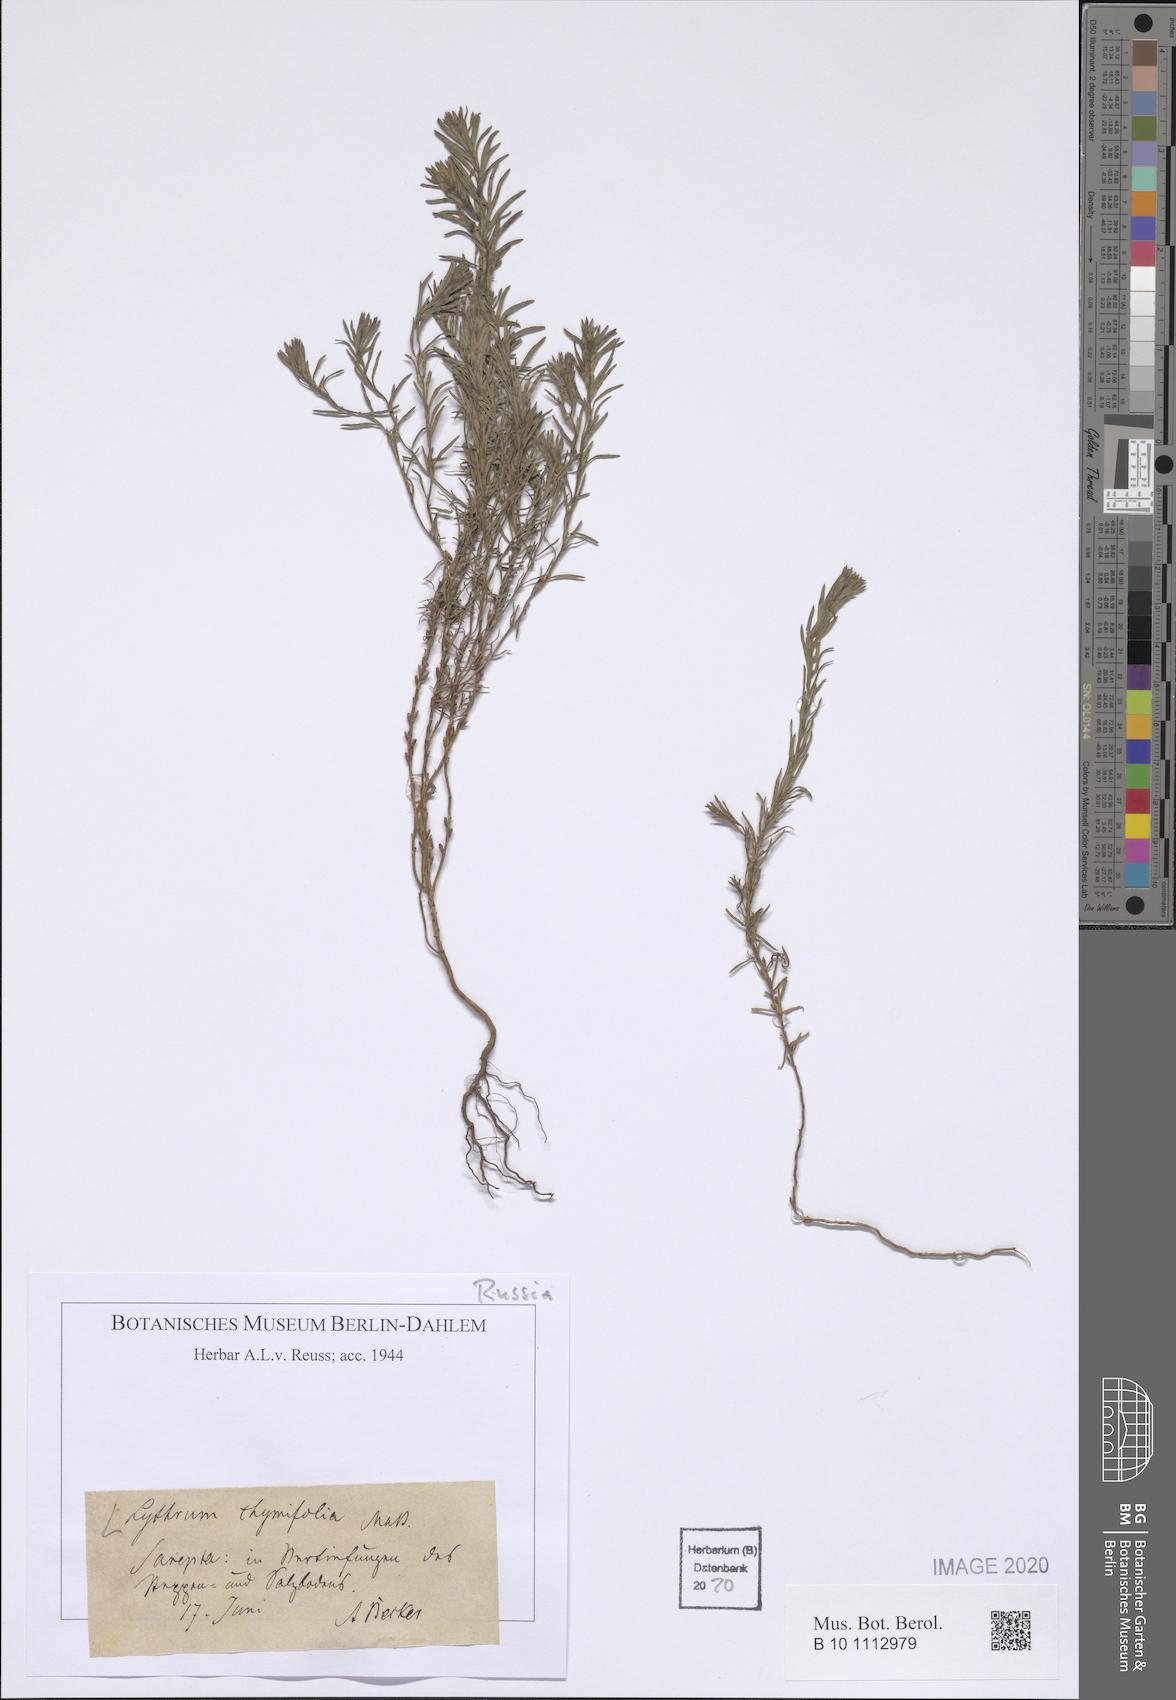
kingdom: Plantae
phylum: Tracheophyta
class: Magnoliopsida
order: Myrtales
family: Lythraceae
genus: Lythrum
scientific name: Lythrum thymifolia
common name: Thymeleaf loosestrife
